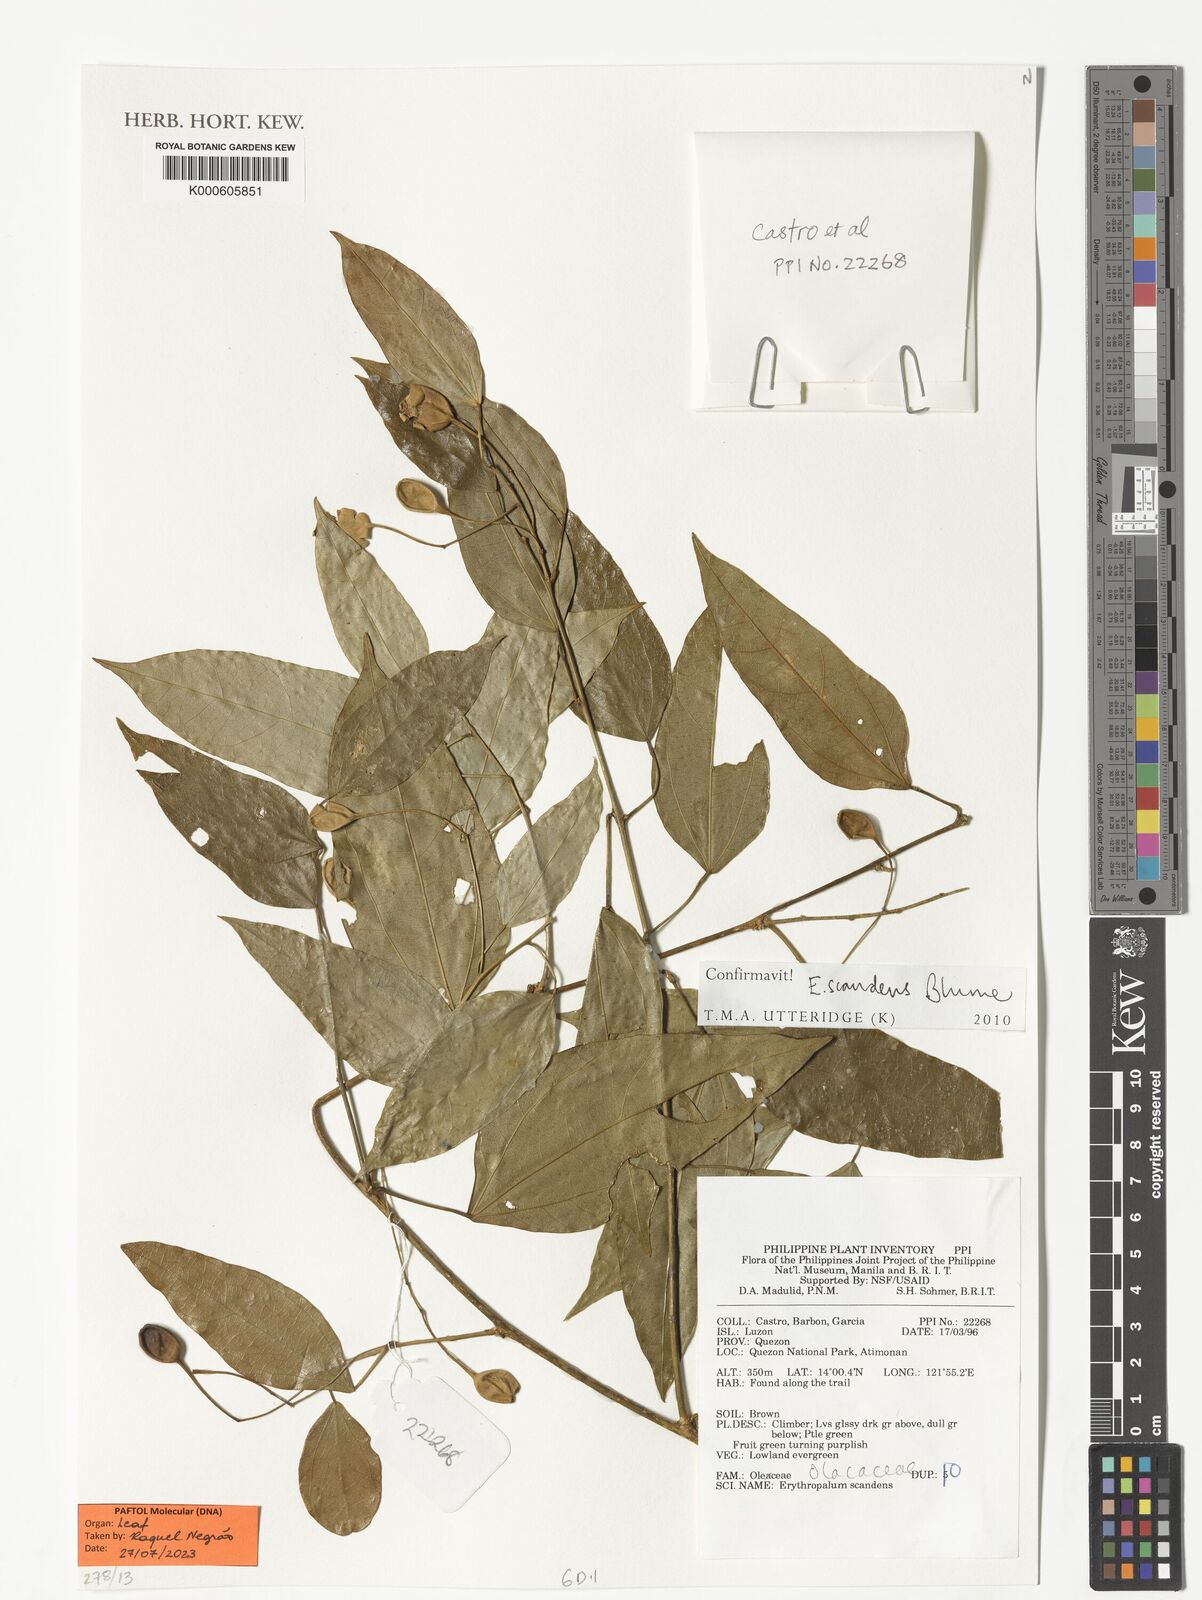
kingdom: Plantae
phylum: Tracheophyta
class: Magnoliopsida
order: Santalales
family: Erythropalaceae
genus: Erythropalum
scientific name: Erythropalum scandens
